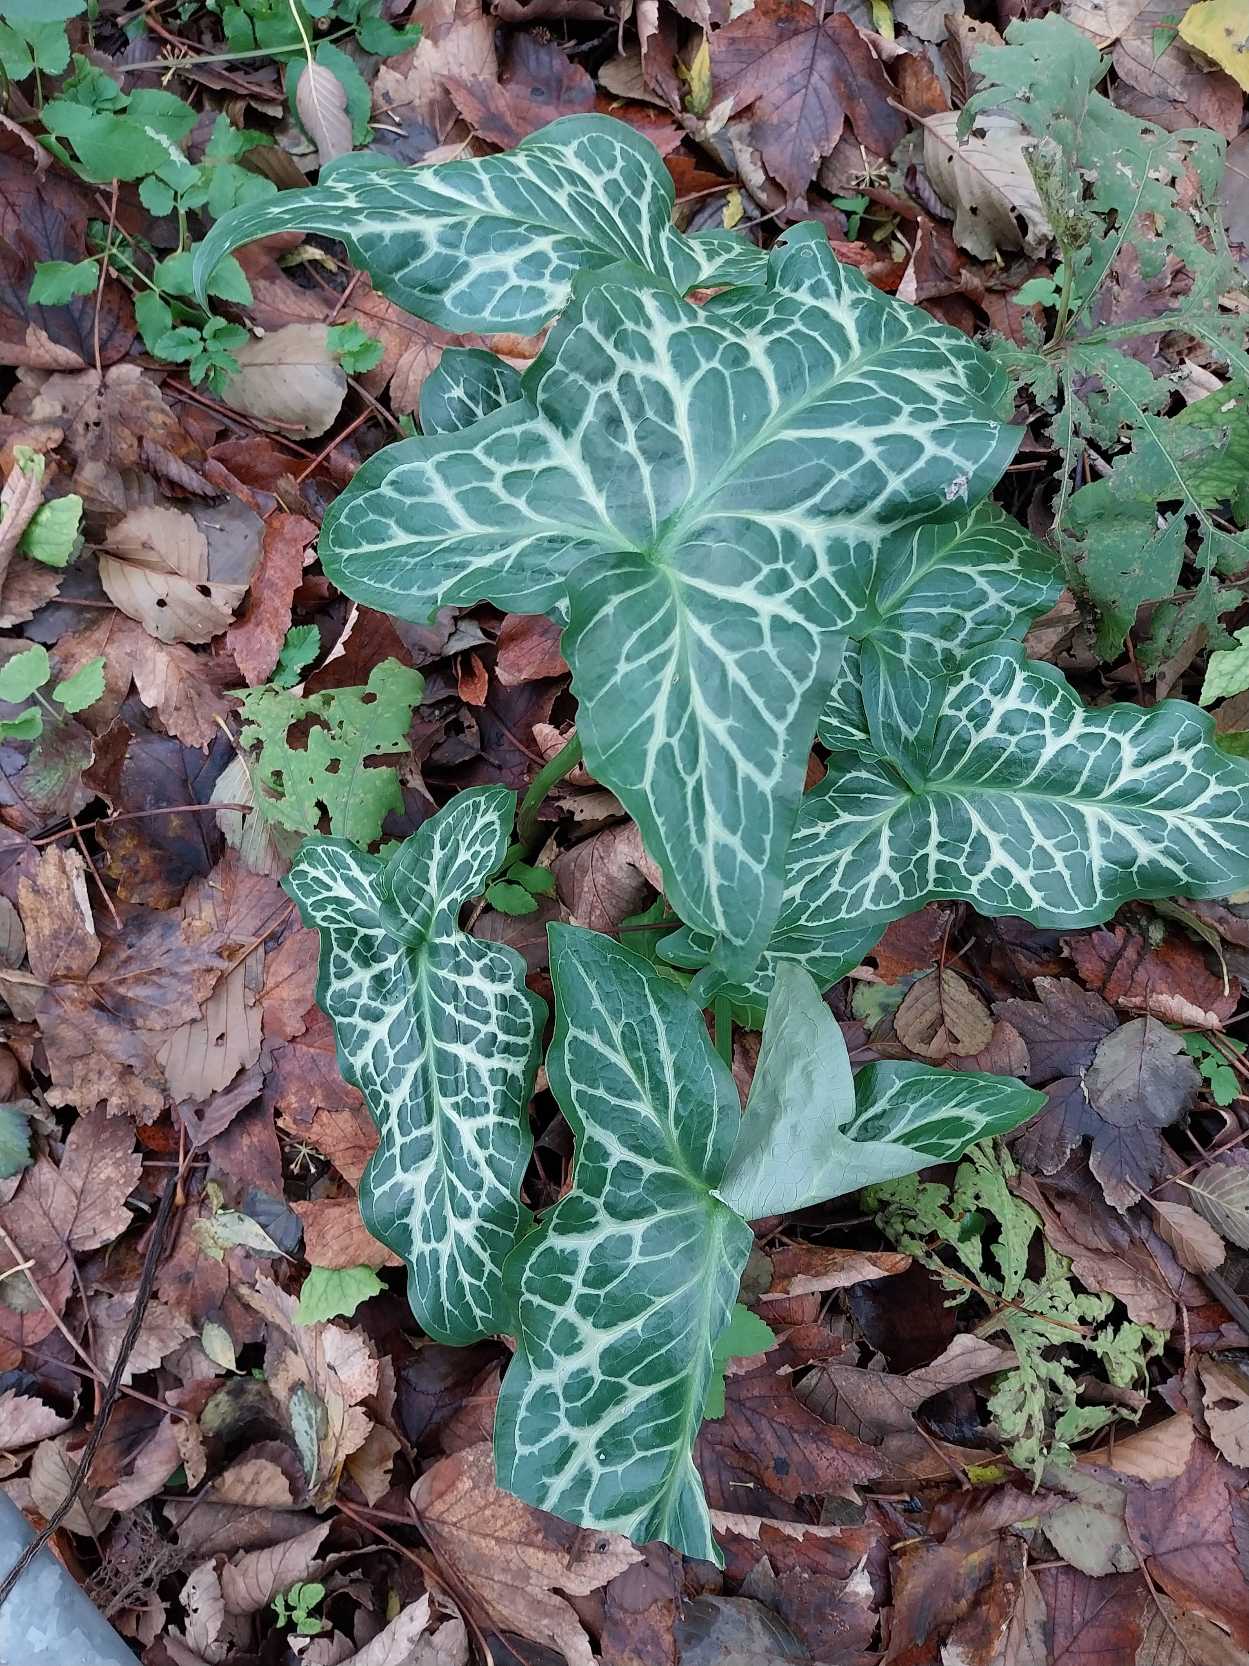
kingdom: Plantae
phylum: Tracheophyta
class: Liliopsida
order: Alismatales
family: Araceae
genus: Arum
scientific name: Arum italicum
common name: Italiensk arum
